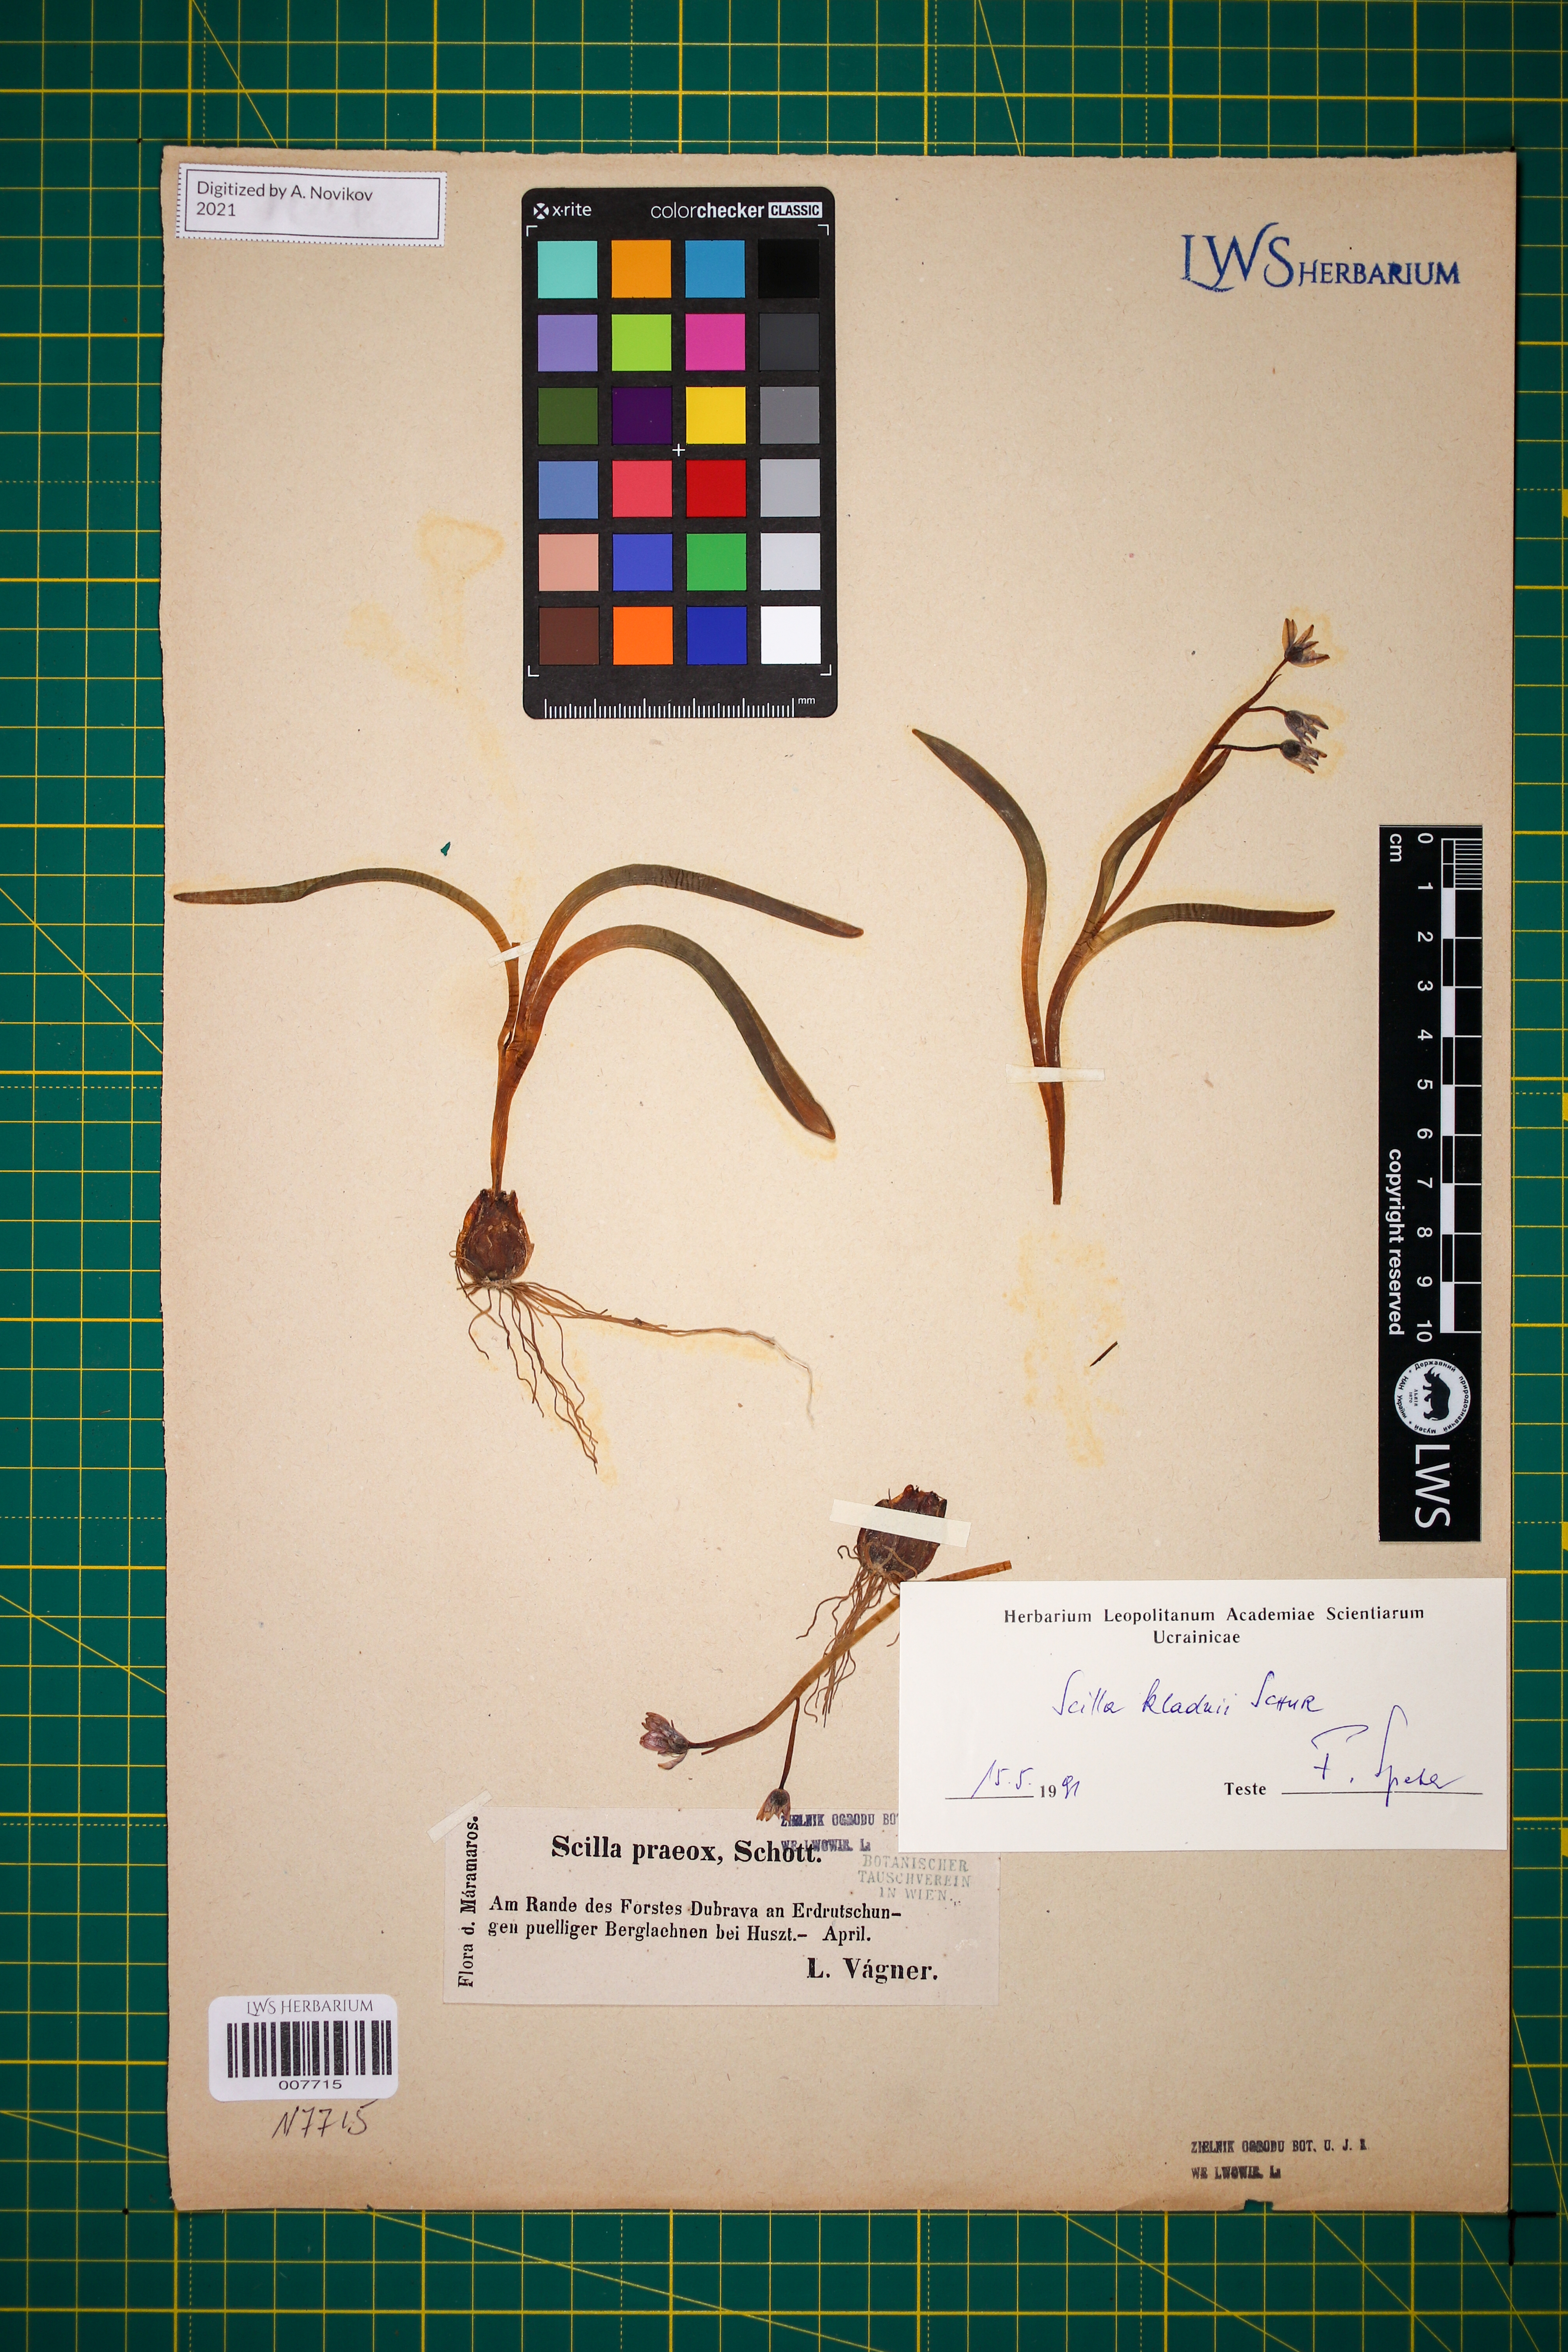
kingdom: Plantae
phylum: Tracheophyta
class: Liliopsida
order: Asparagales
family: Asparagaceae
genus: Scilla
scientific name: Scilla kladnii
